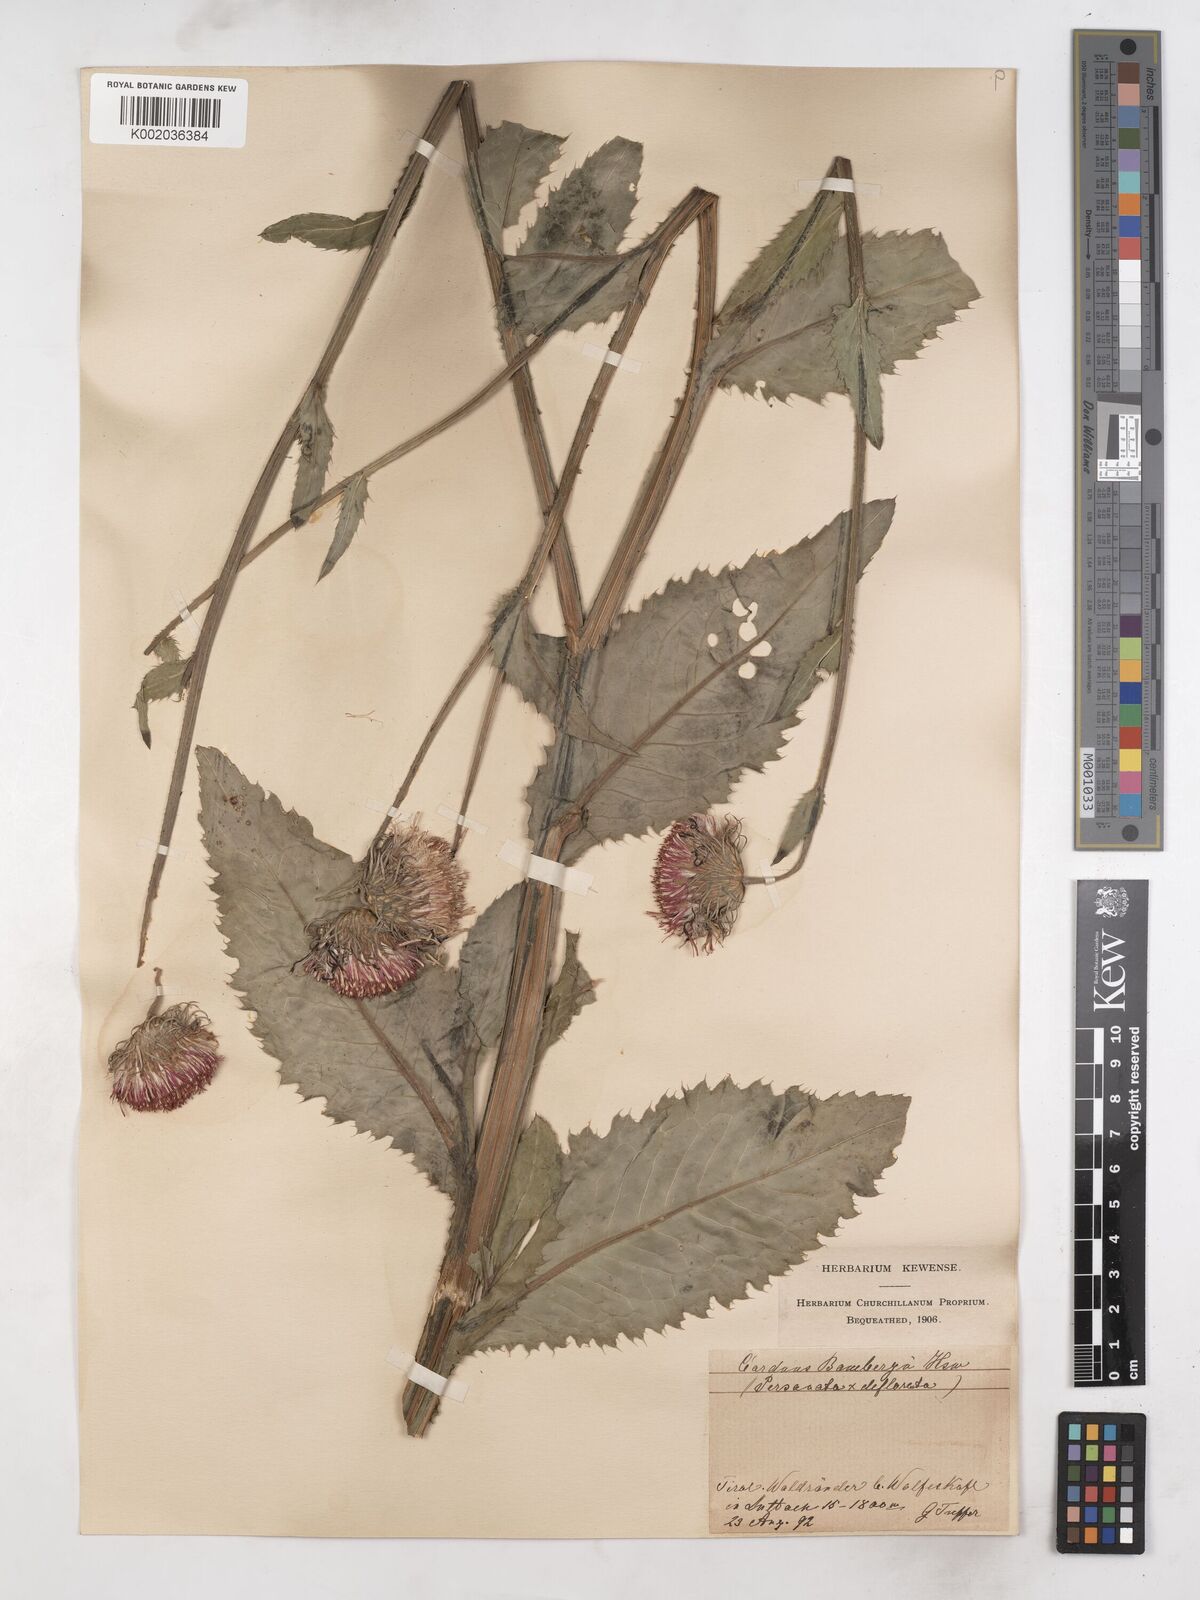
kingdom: Plantae
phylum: Tracheophyta
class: Magnoliopsida
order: Asterales
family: Asteraceae
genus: Carduus
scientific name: Carduus personata
